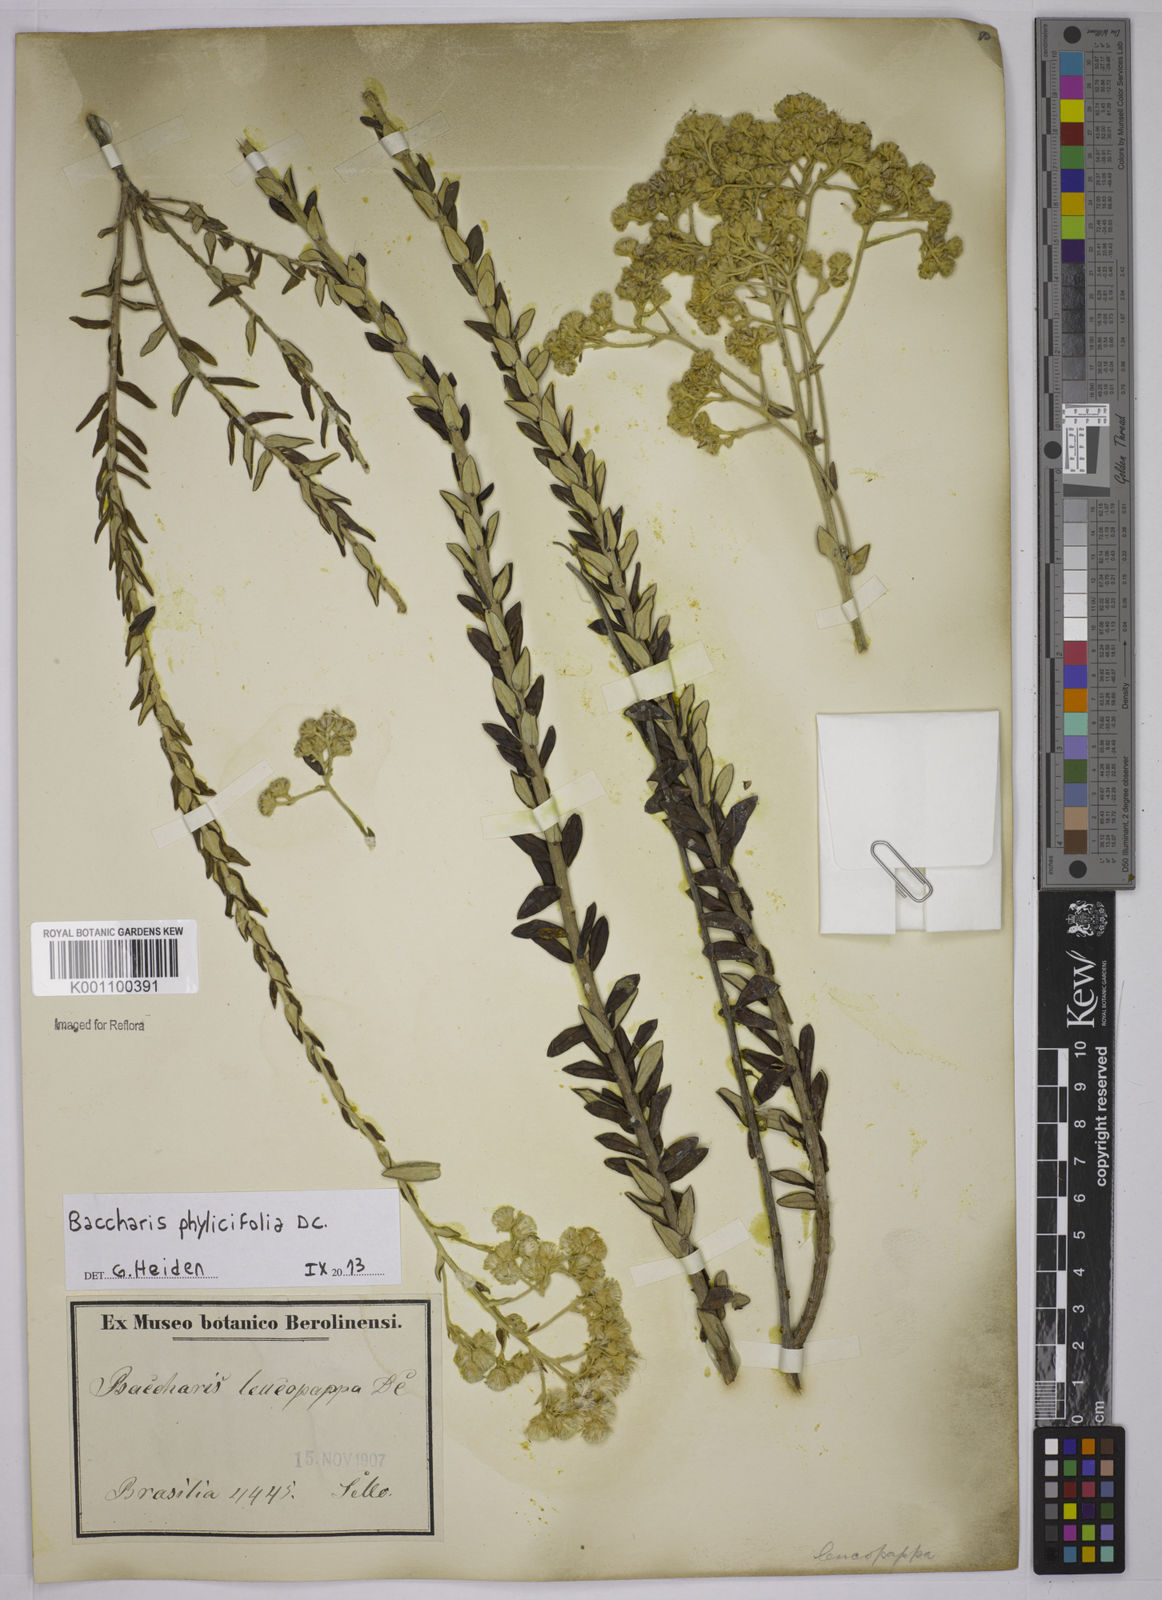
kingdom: Plantae
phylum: Tracheophyta
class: Magnoliopsida
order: Asterales
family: Asteraceae
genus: Baccharis
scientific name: Baccharis leucopappa
